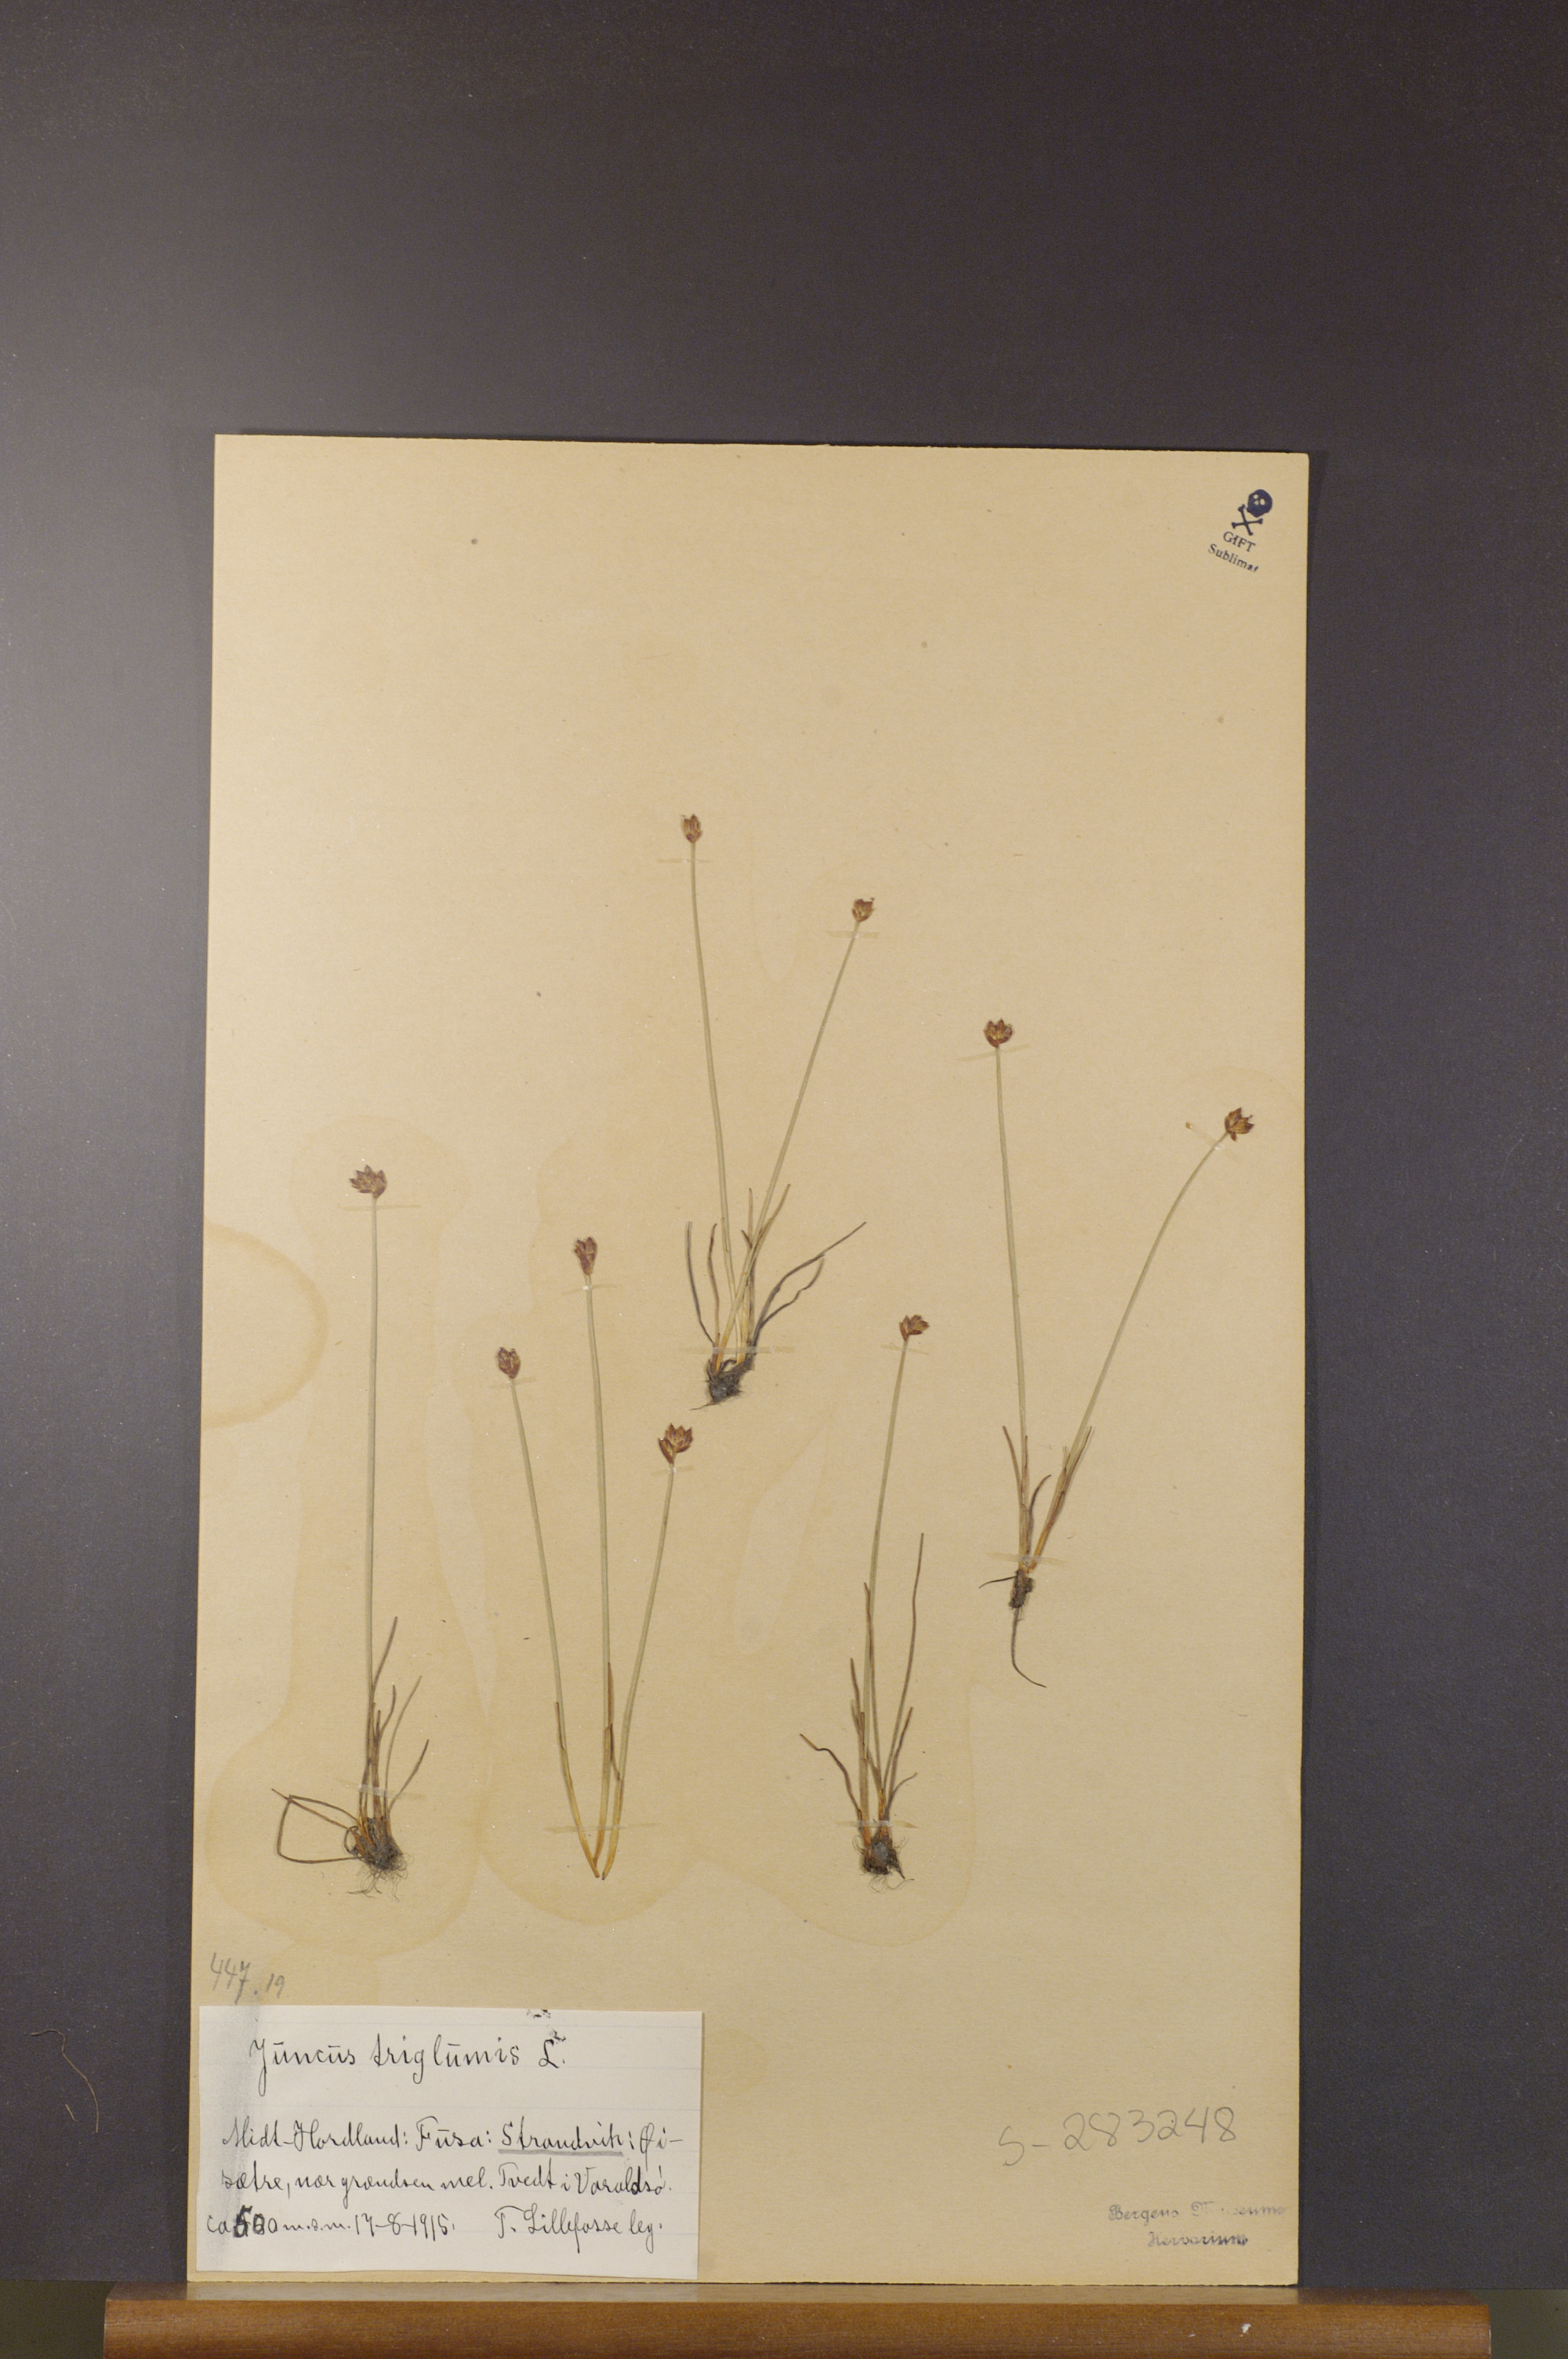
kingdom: Plantae
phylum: Tracheophyta
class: Liliopsida
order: Poales
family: Juncaceae
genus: Juncus
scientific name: Juncus triglumis
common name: Three-flowered rush
